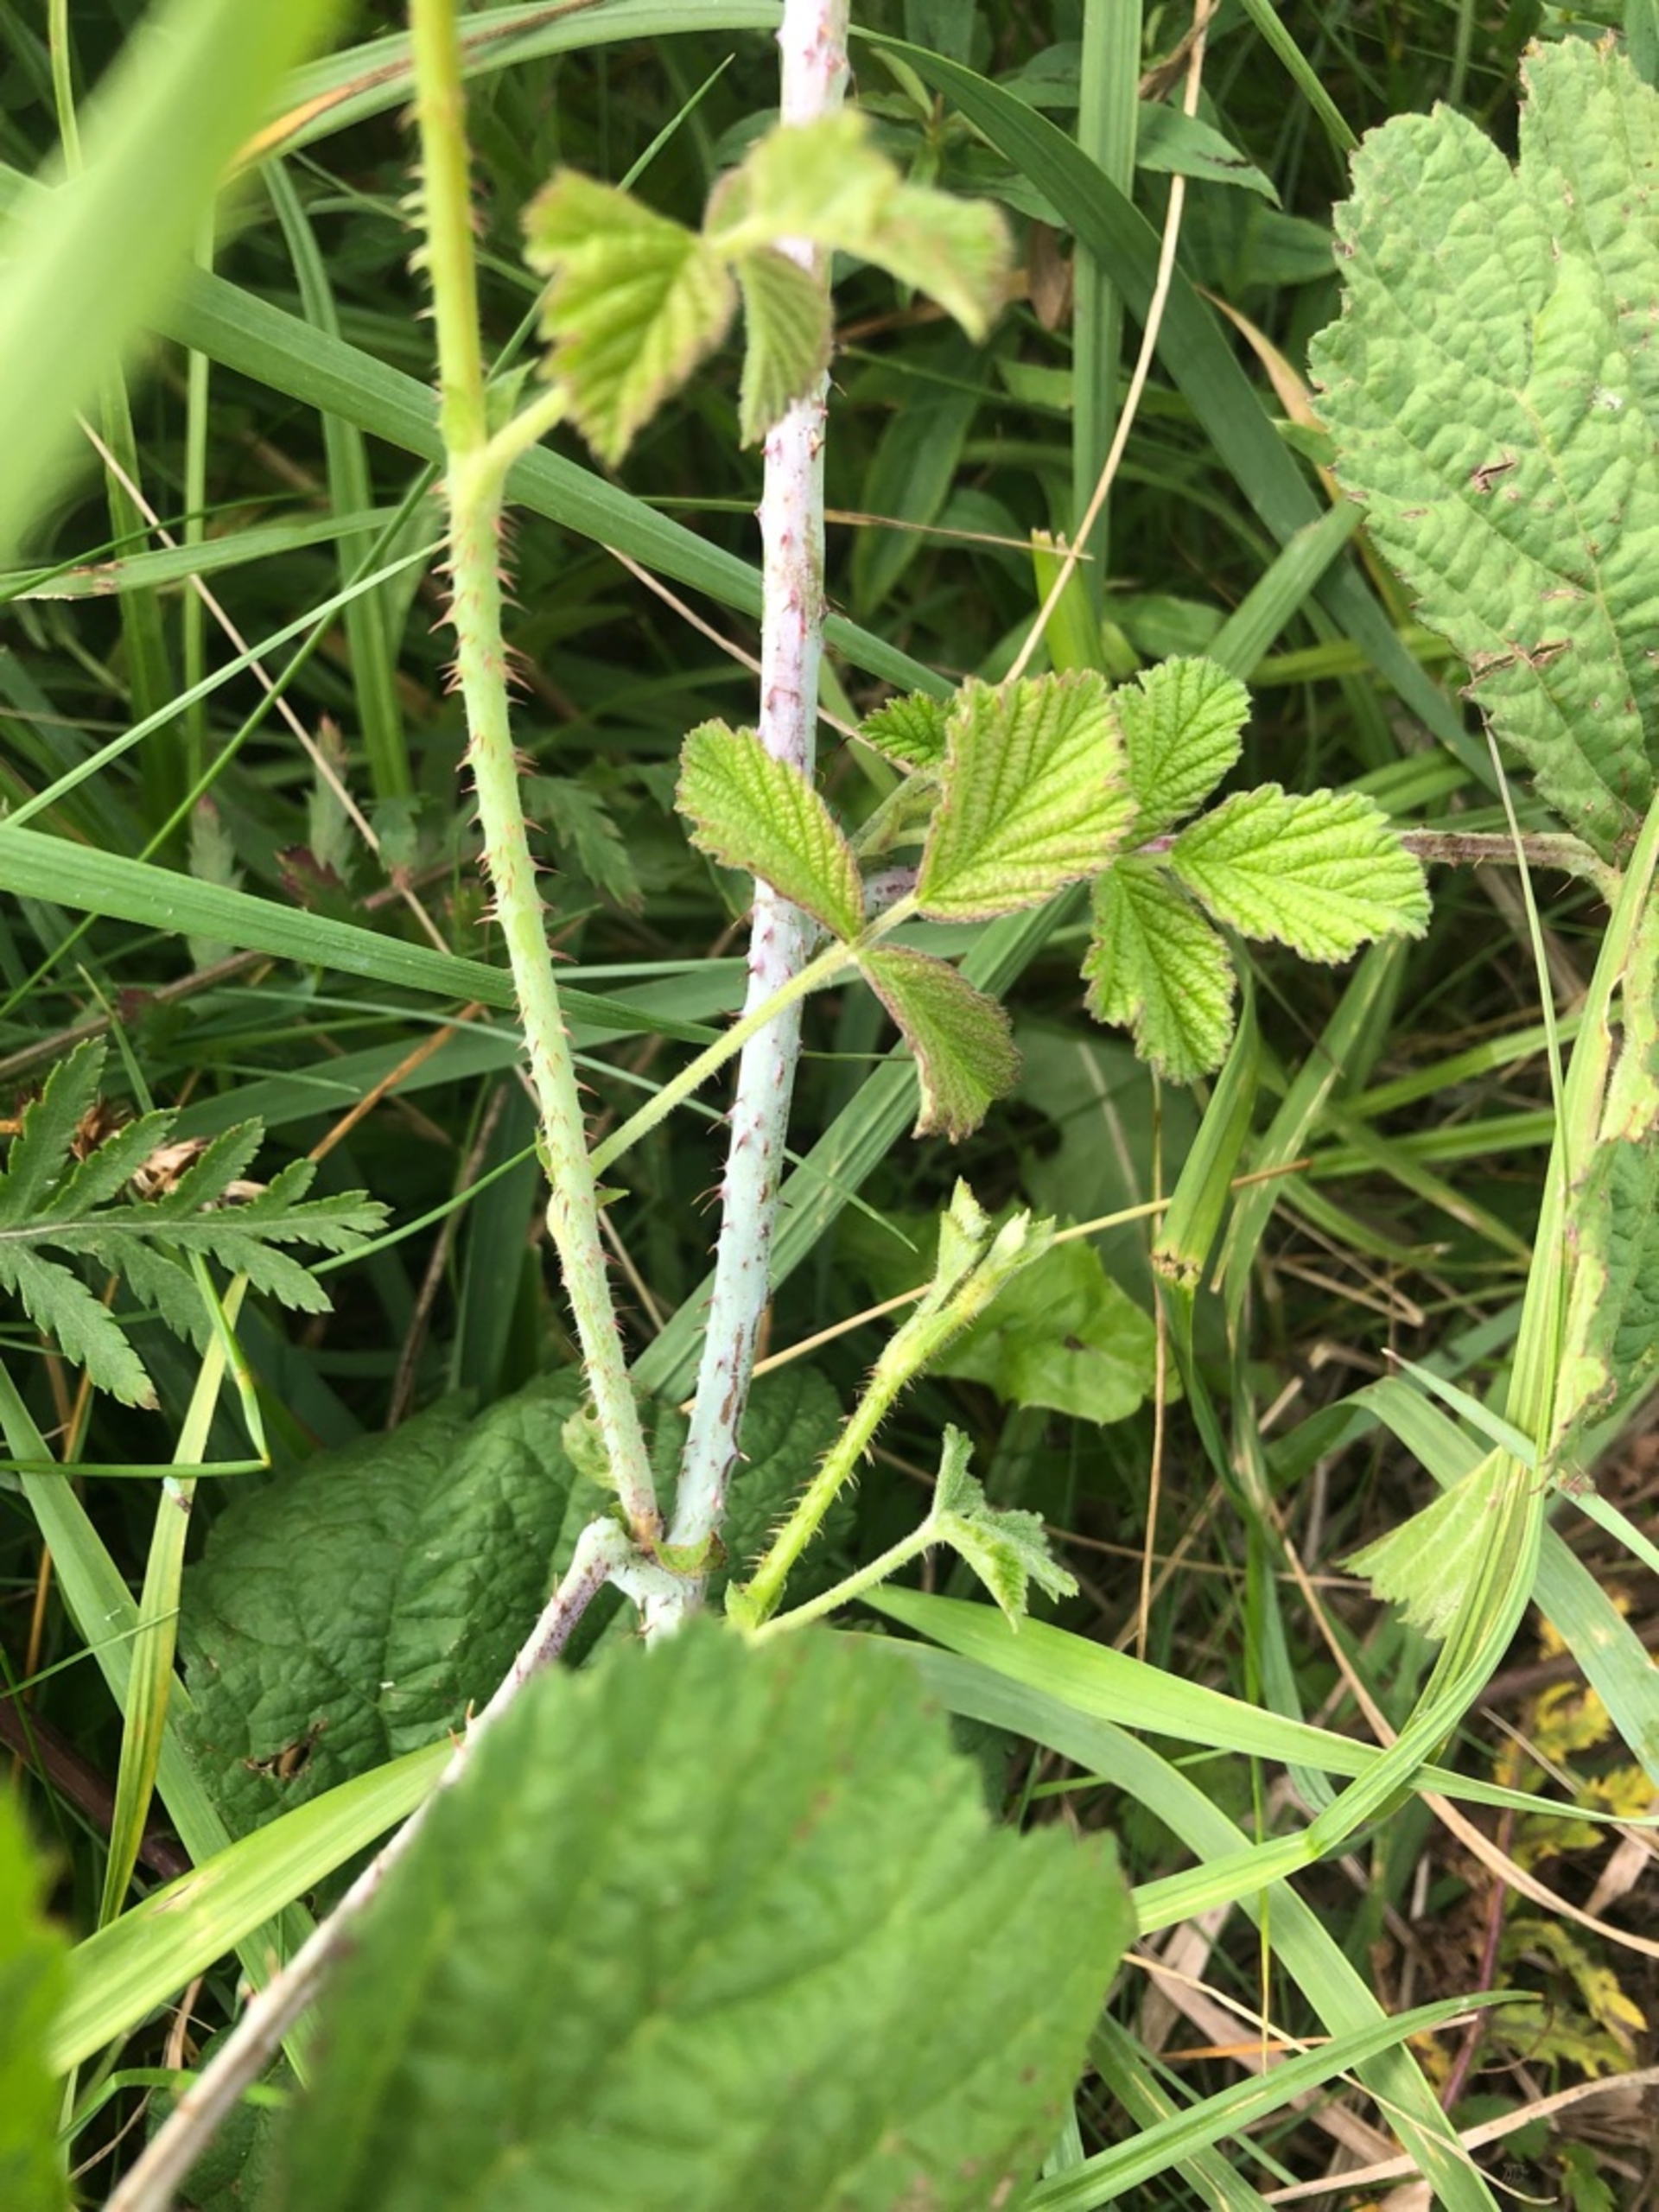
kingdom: Plantae
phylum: Tracheophyta
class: Magnoliopsida
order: Rosales
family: Rosaceae
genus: Rubus
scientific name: Rubus caesius
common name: Korbær
